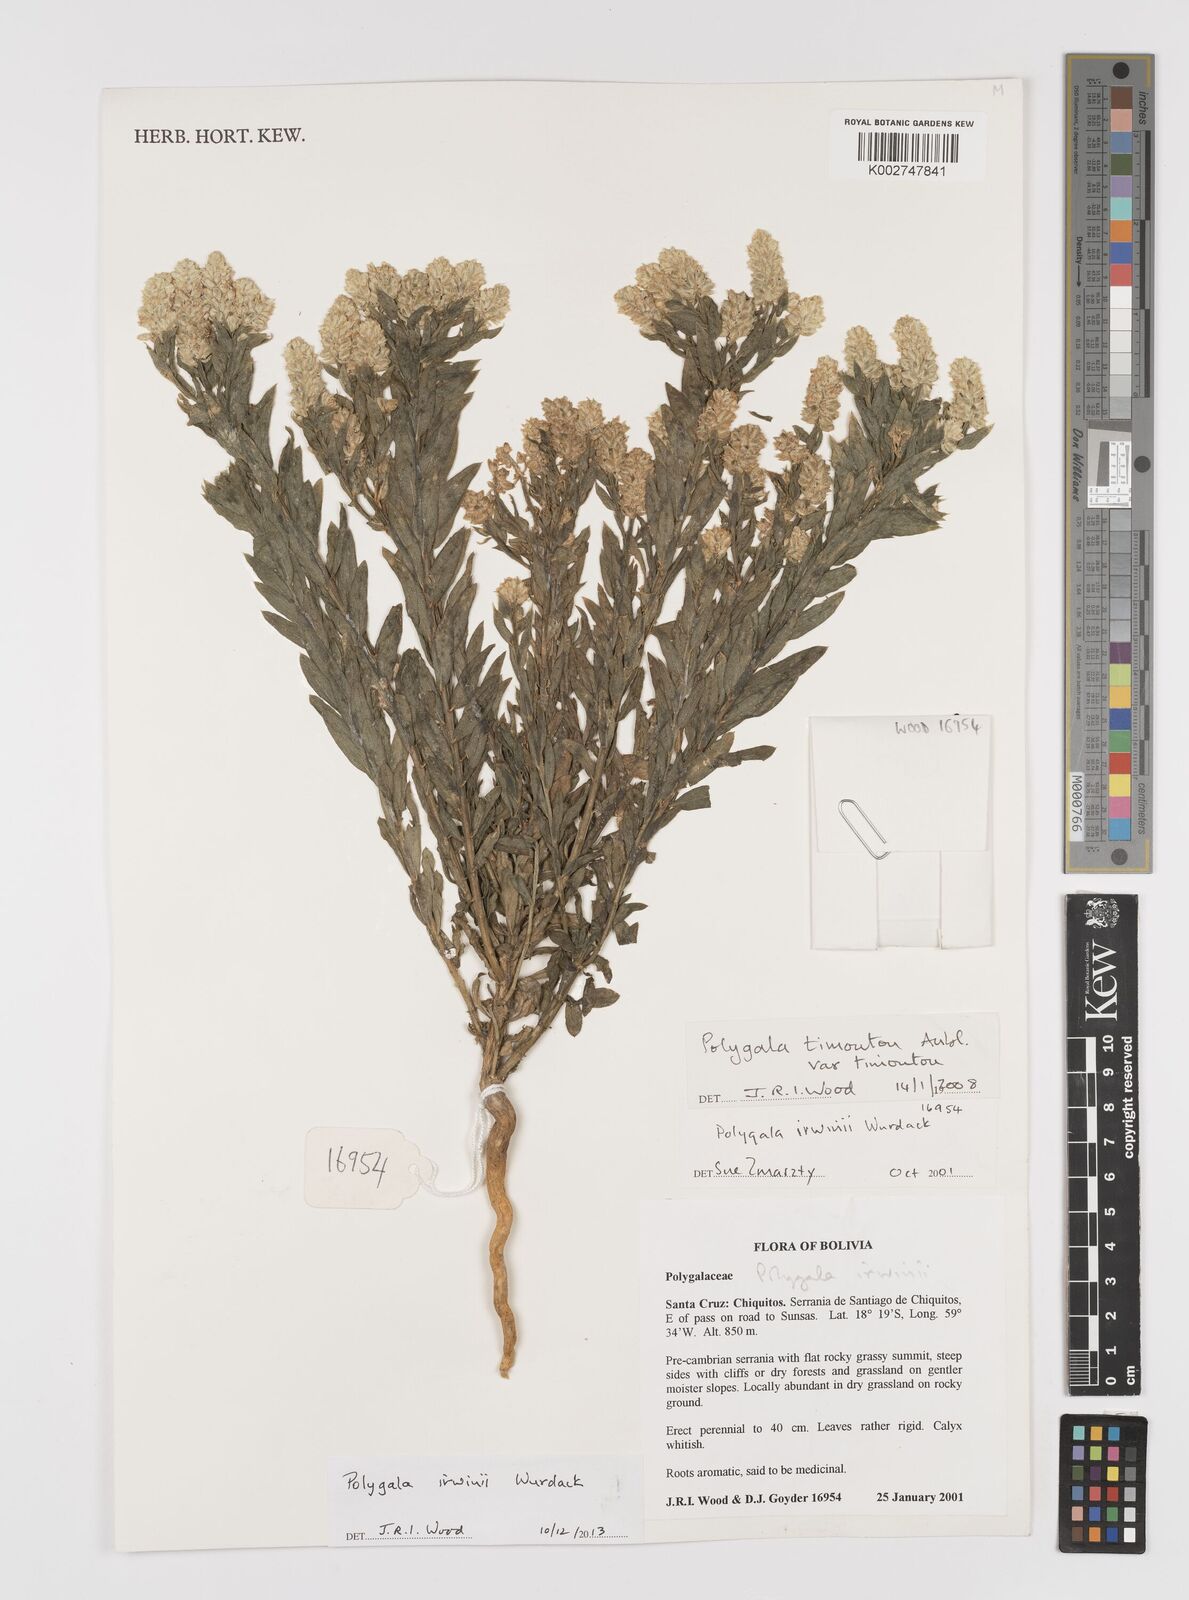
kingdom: Plantae
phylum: Tracheophyta
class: Magnoliopsida
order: Fabales
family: Polygalaceae
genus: Polygala
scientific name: Polygala irwinii
